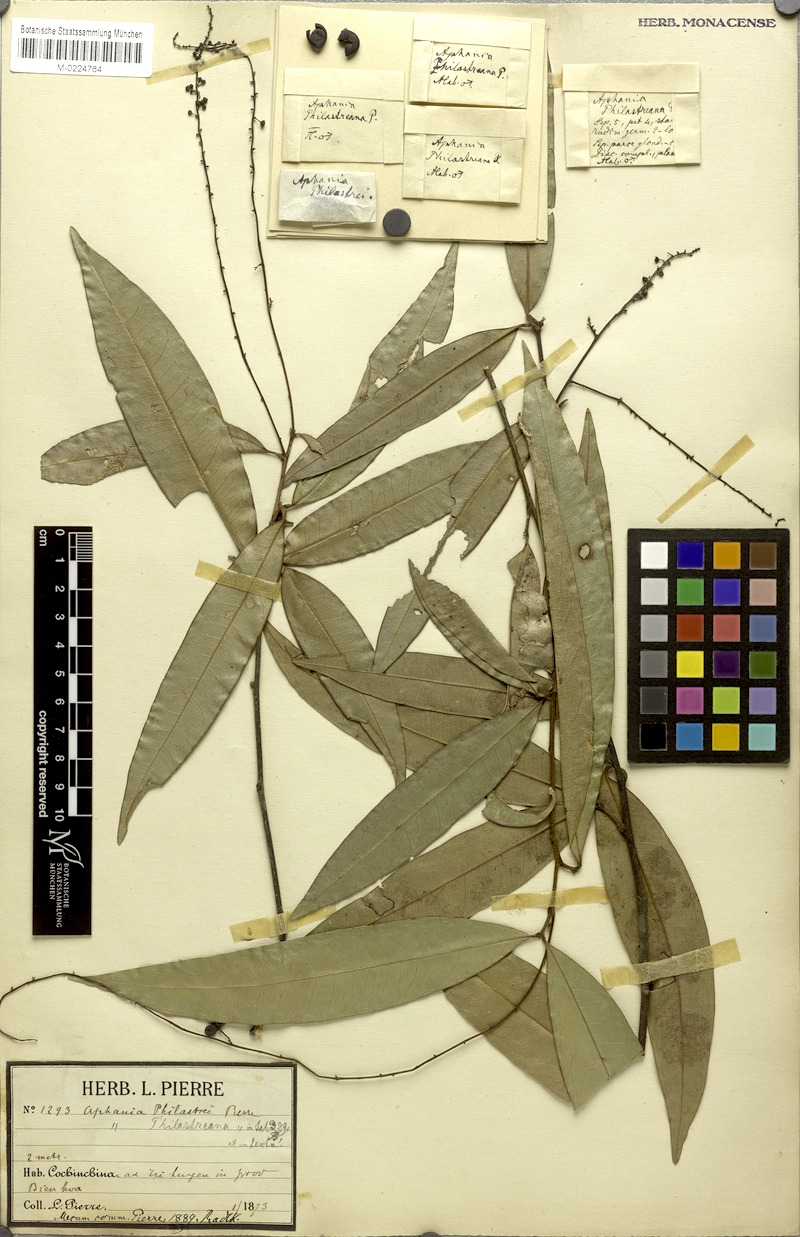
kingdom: Plantae
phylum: Tracheophyta
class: Magnoliopsida
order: Sapindales
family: Sapindaceae
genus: Lepisanthes
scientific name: Lepisanthes senegalensis
